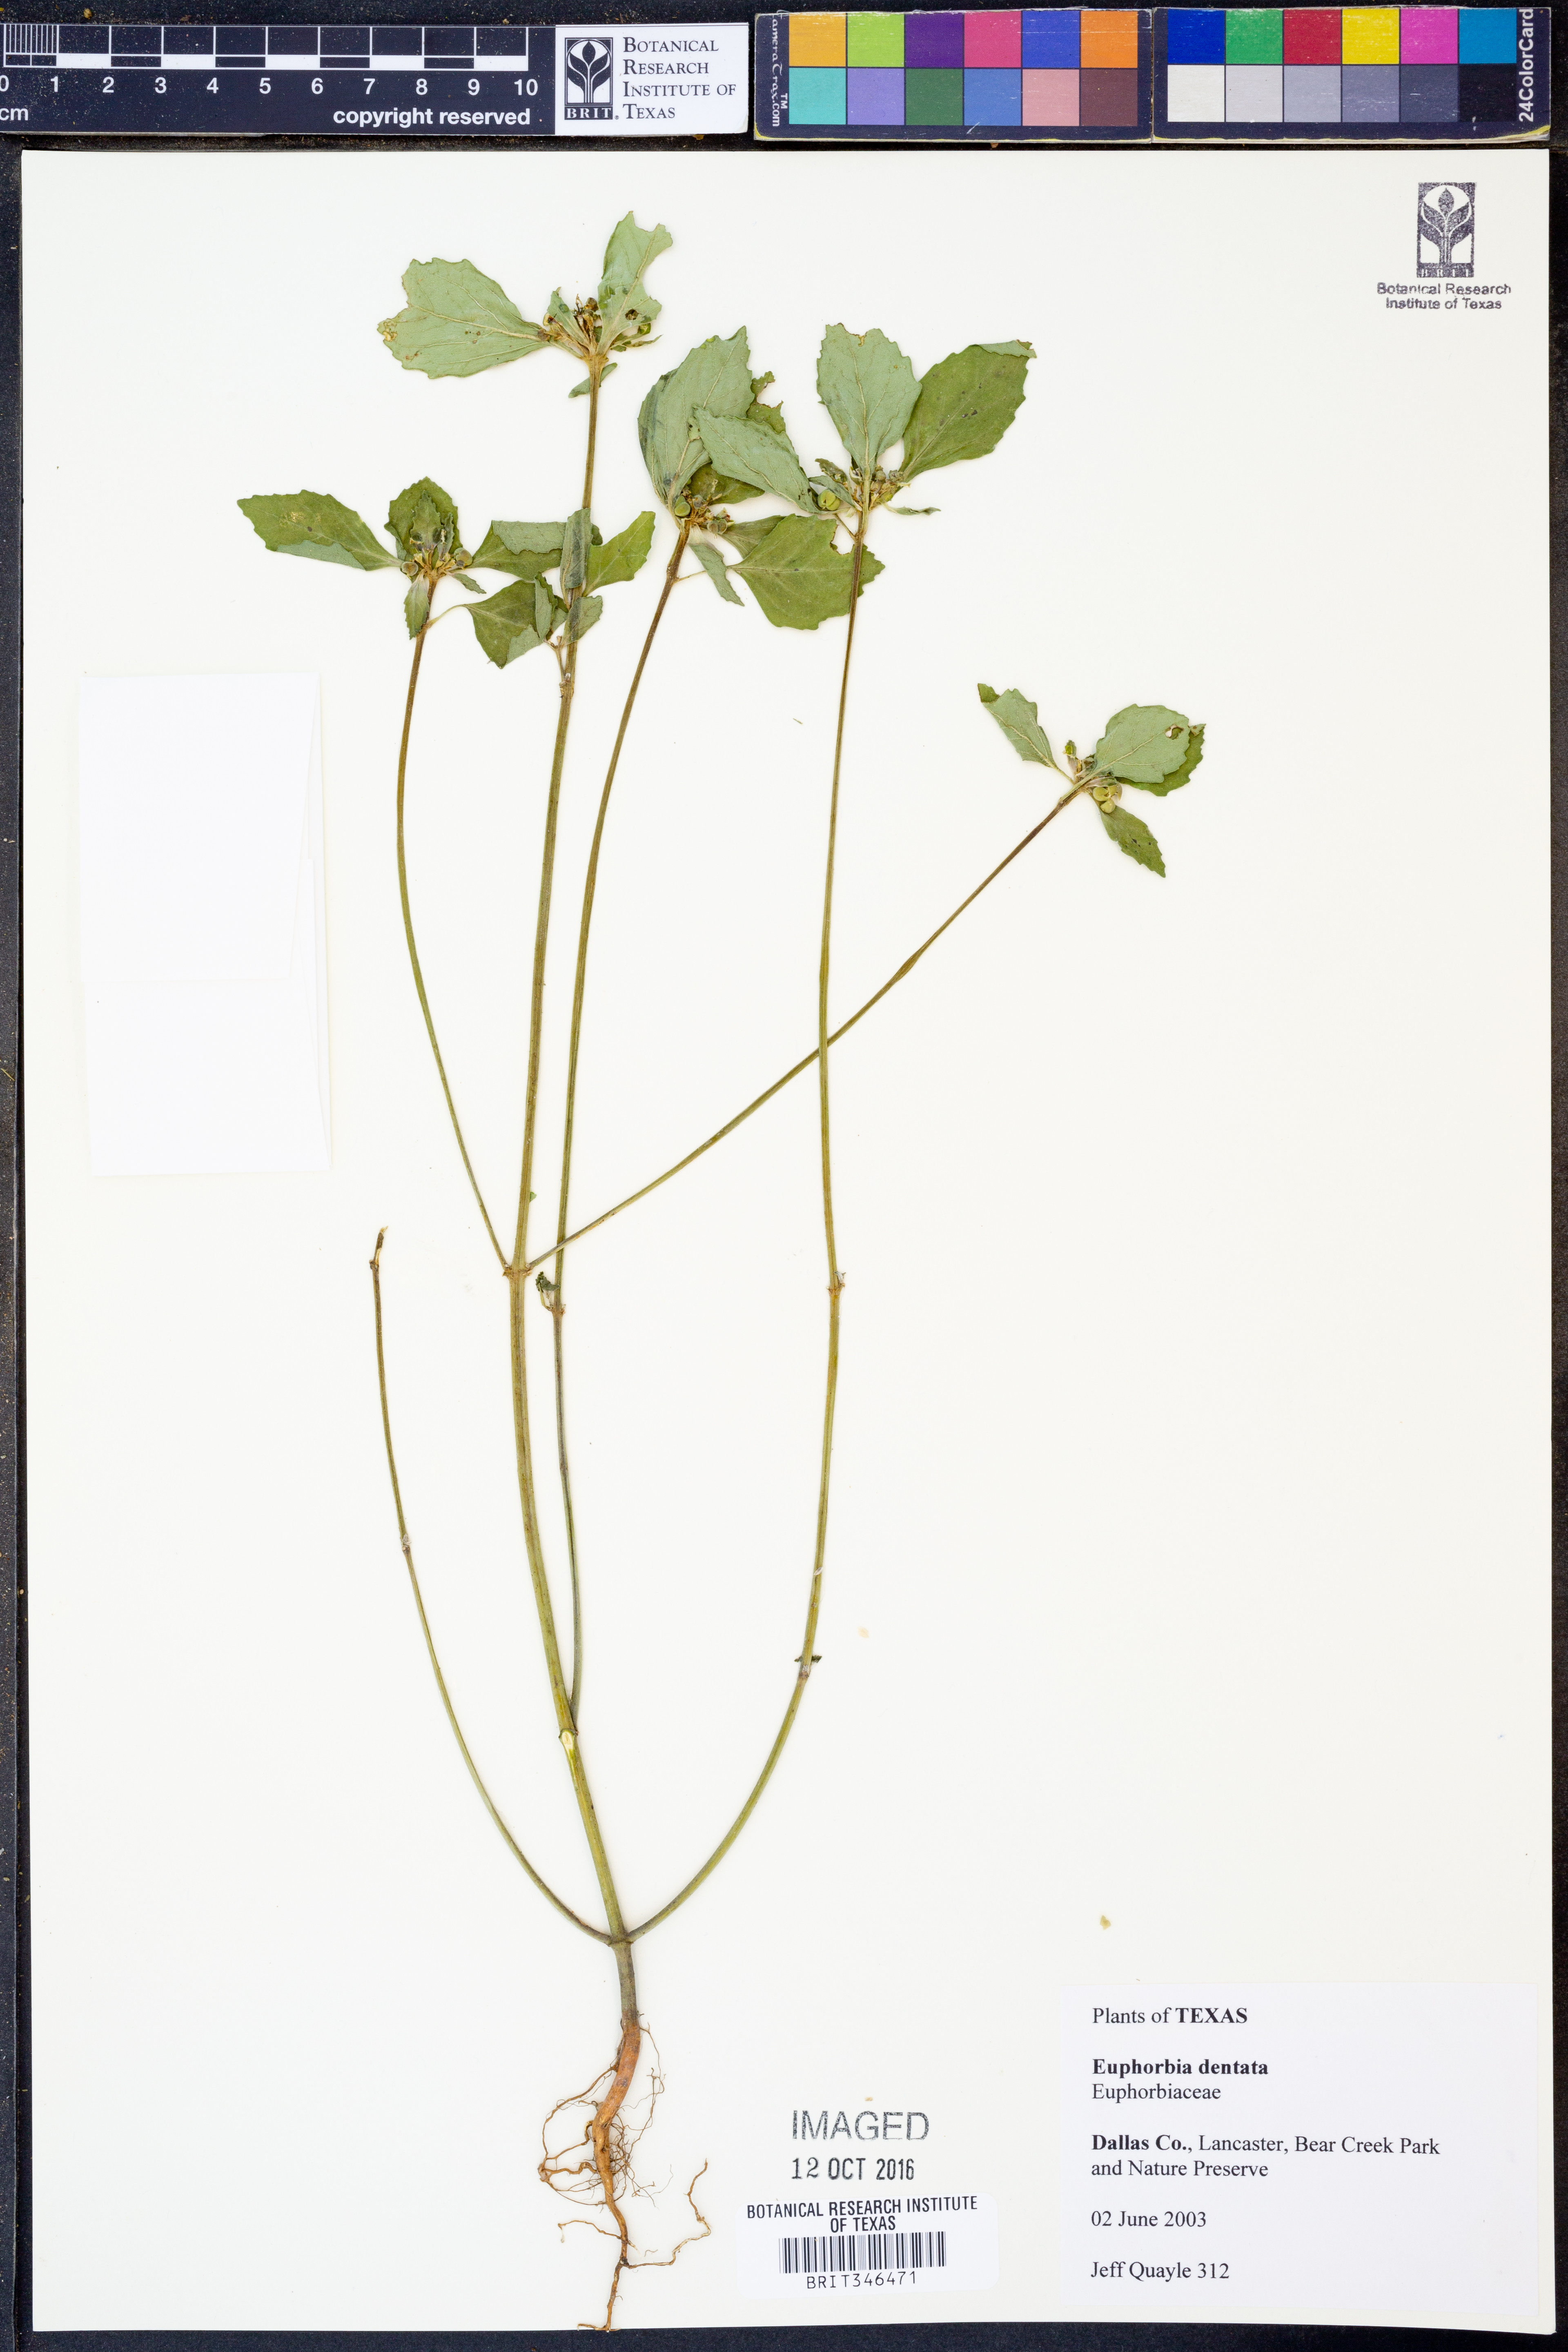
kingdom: Plantae
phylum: Tracheophyta
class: Magnoliopsida
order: Malpighiales
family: Euphorbiaceae
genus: Euphorbia
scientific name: Euphorbia dentata
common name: Dentate spurge
